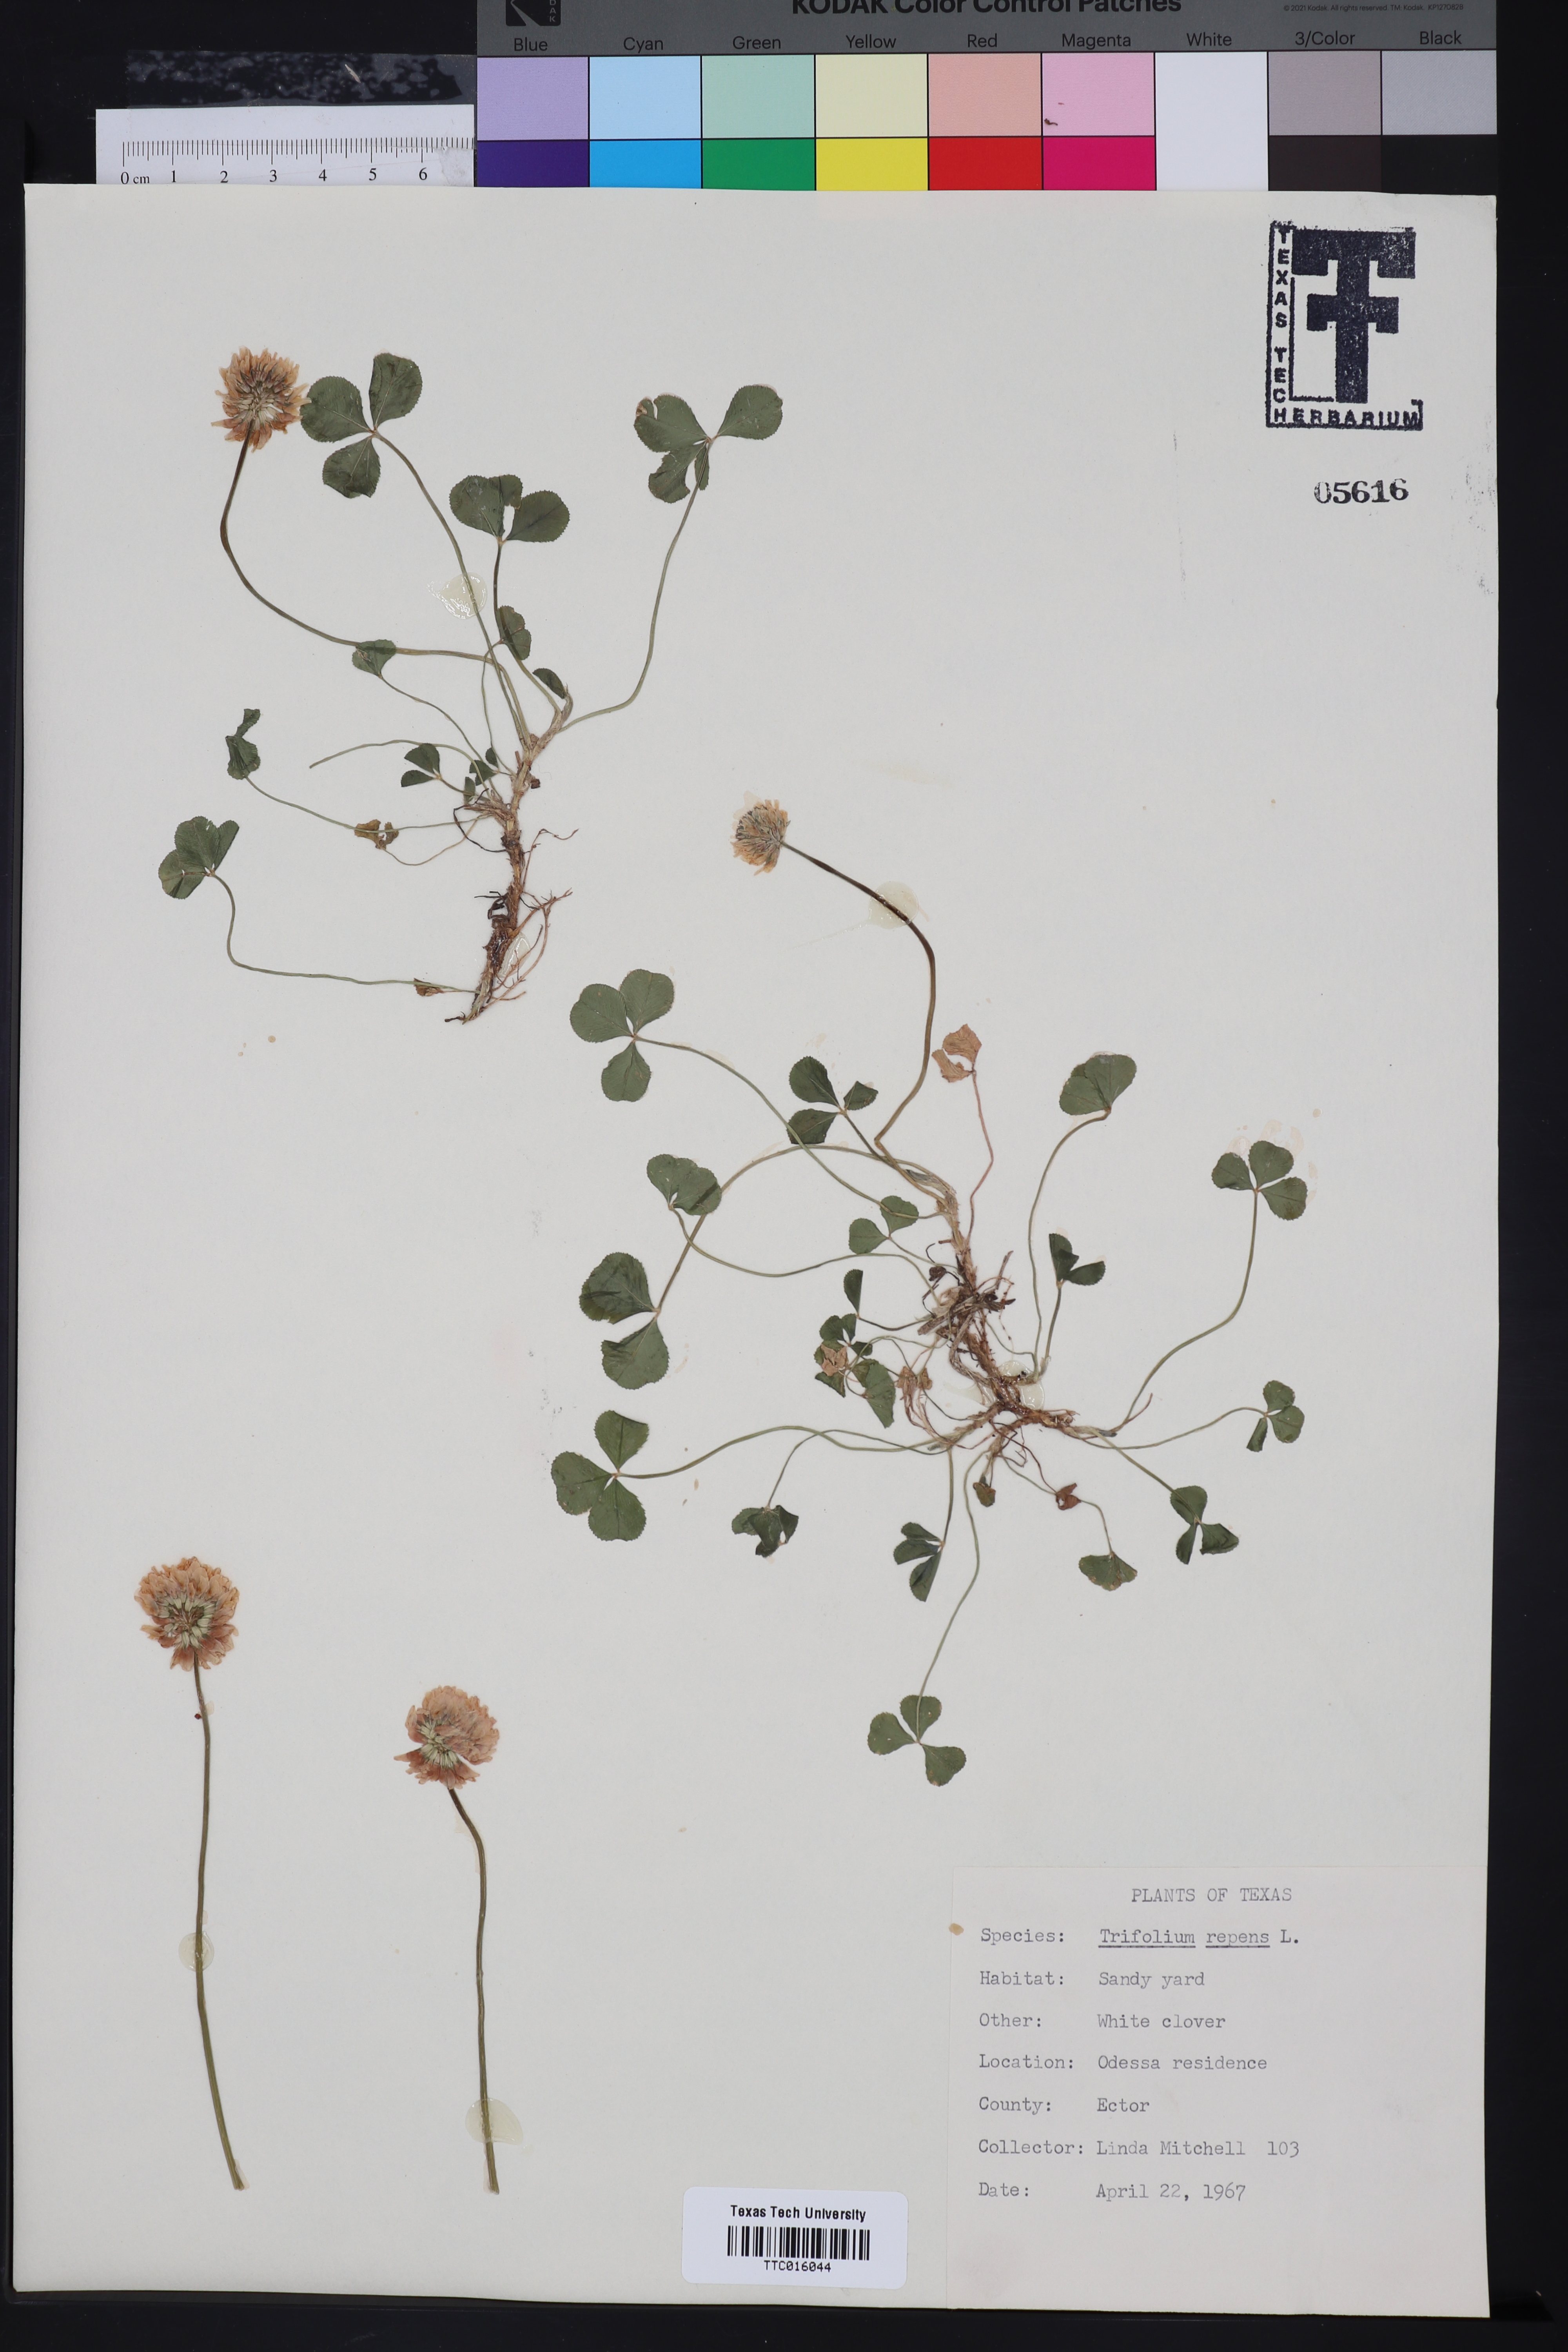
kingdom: Plantae
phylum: Tracheophyta
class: Magnoliopsida
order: Fabales
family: Fabaceae
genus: Trifolium
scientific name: Trifolium repens
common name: White clover
